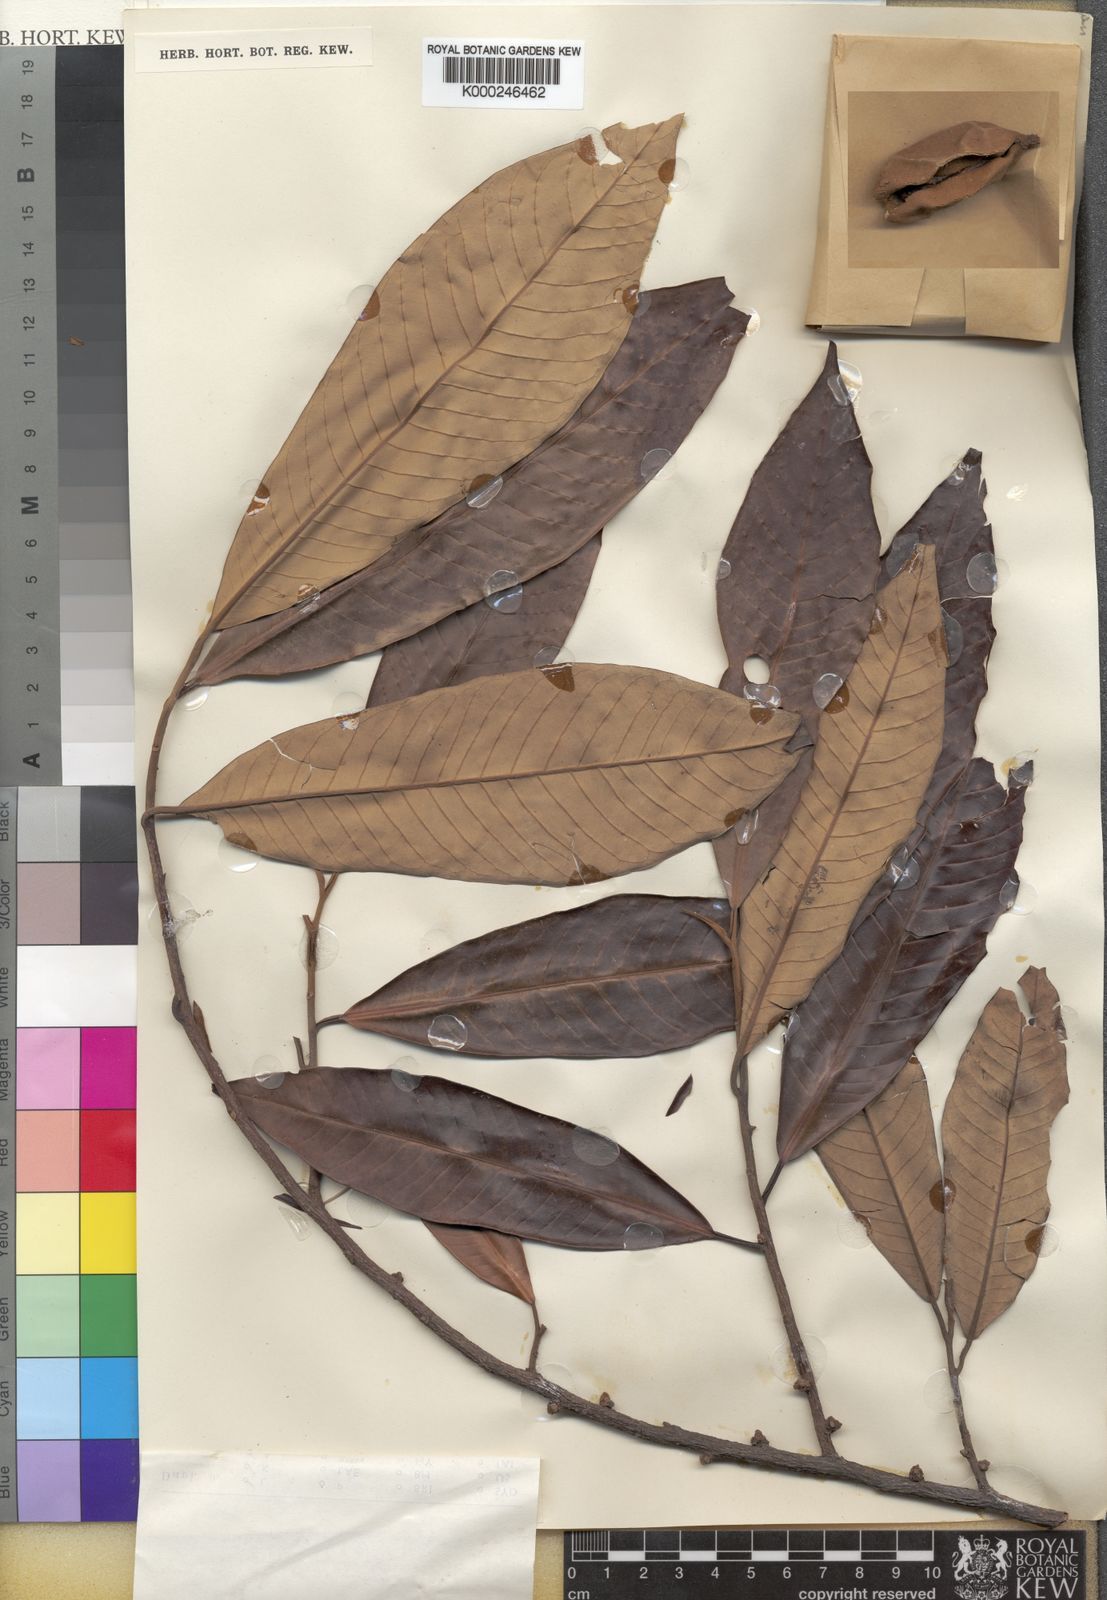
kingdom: Plantae
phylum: Tracheophyta
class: Magnoliopsida
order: Magnoliales
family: Myristicaceae
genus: Myristica
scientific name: Myristica fatua
